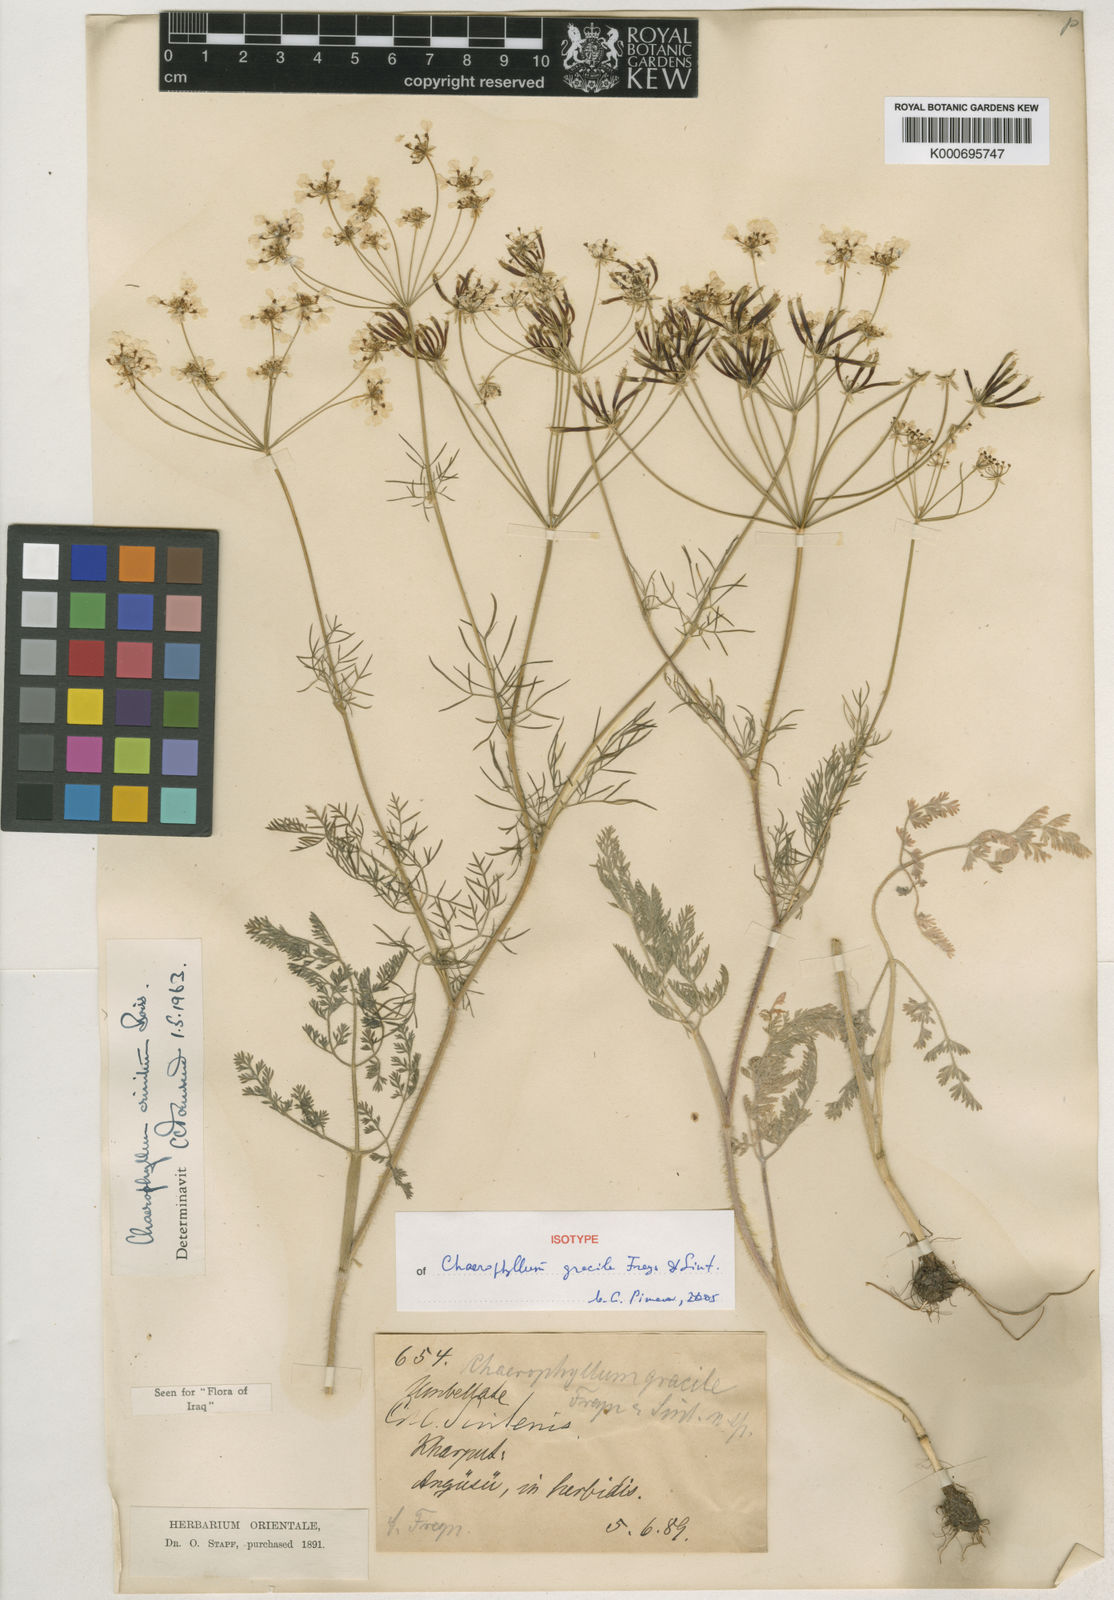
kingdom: Plantae
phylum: Tracheophyta
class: Magnoliopsida
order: Apiales
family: Apiaceae
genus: Chaerophyllum
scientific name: Chaerophyllum crinitum
